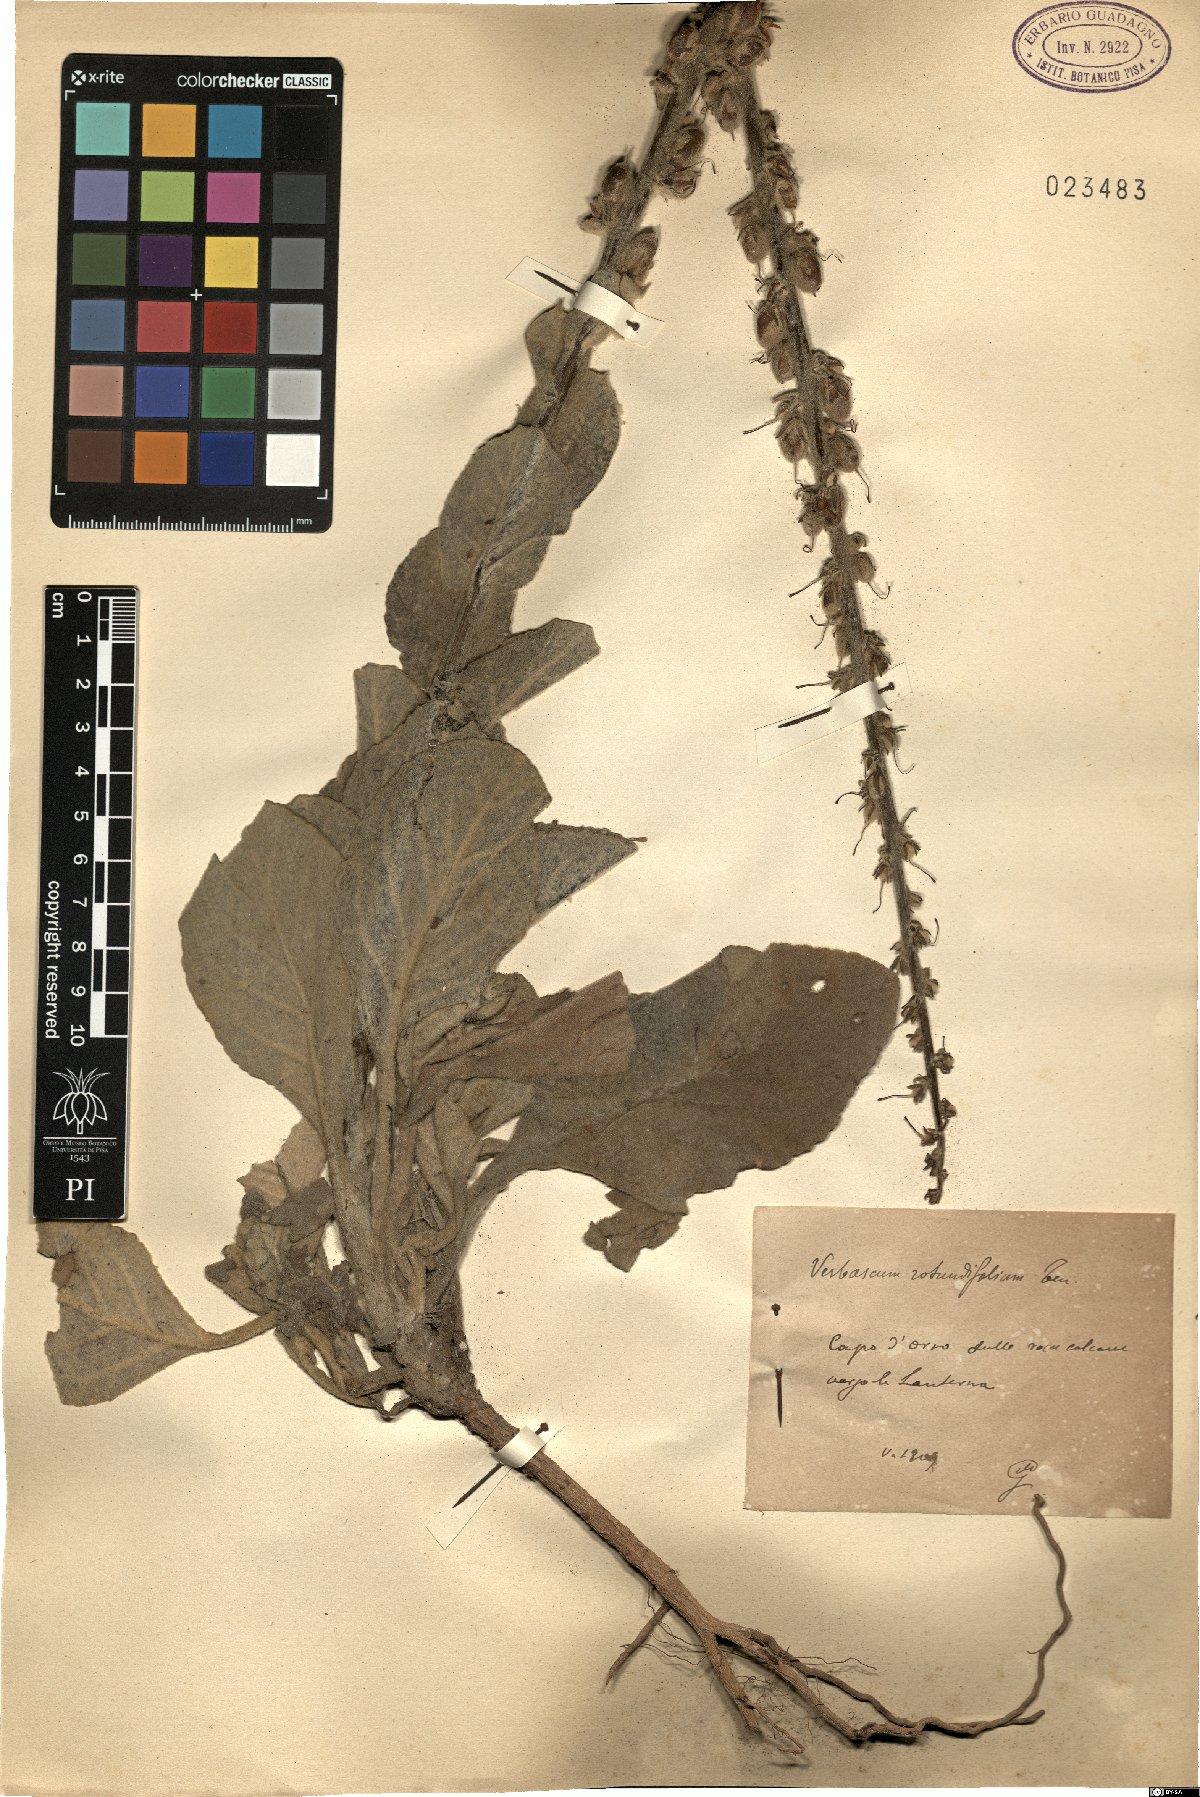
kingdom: Plantae
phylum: Tracheophyta
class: Magnoliopsida
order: Lamiales
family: Scrophulariaceae
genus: Verbascum
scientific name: Verbascum rotundifolium
